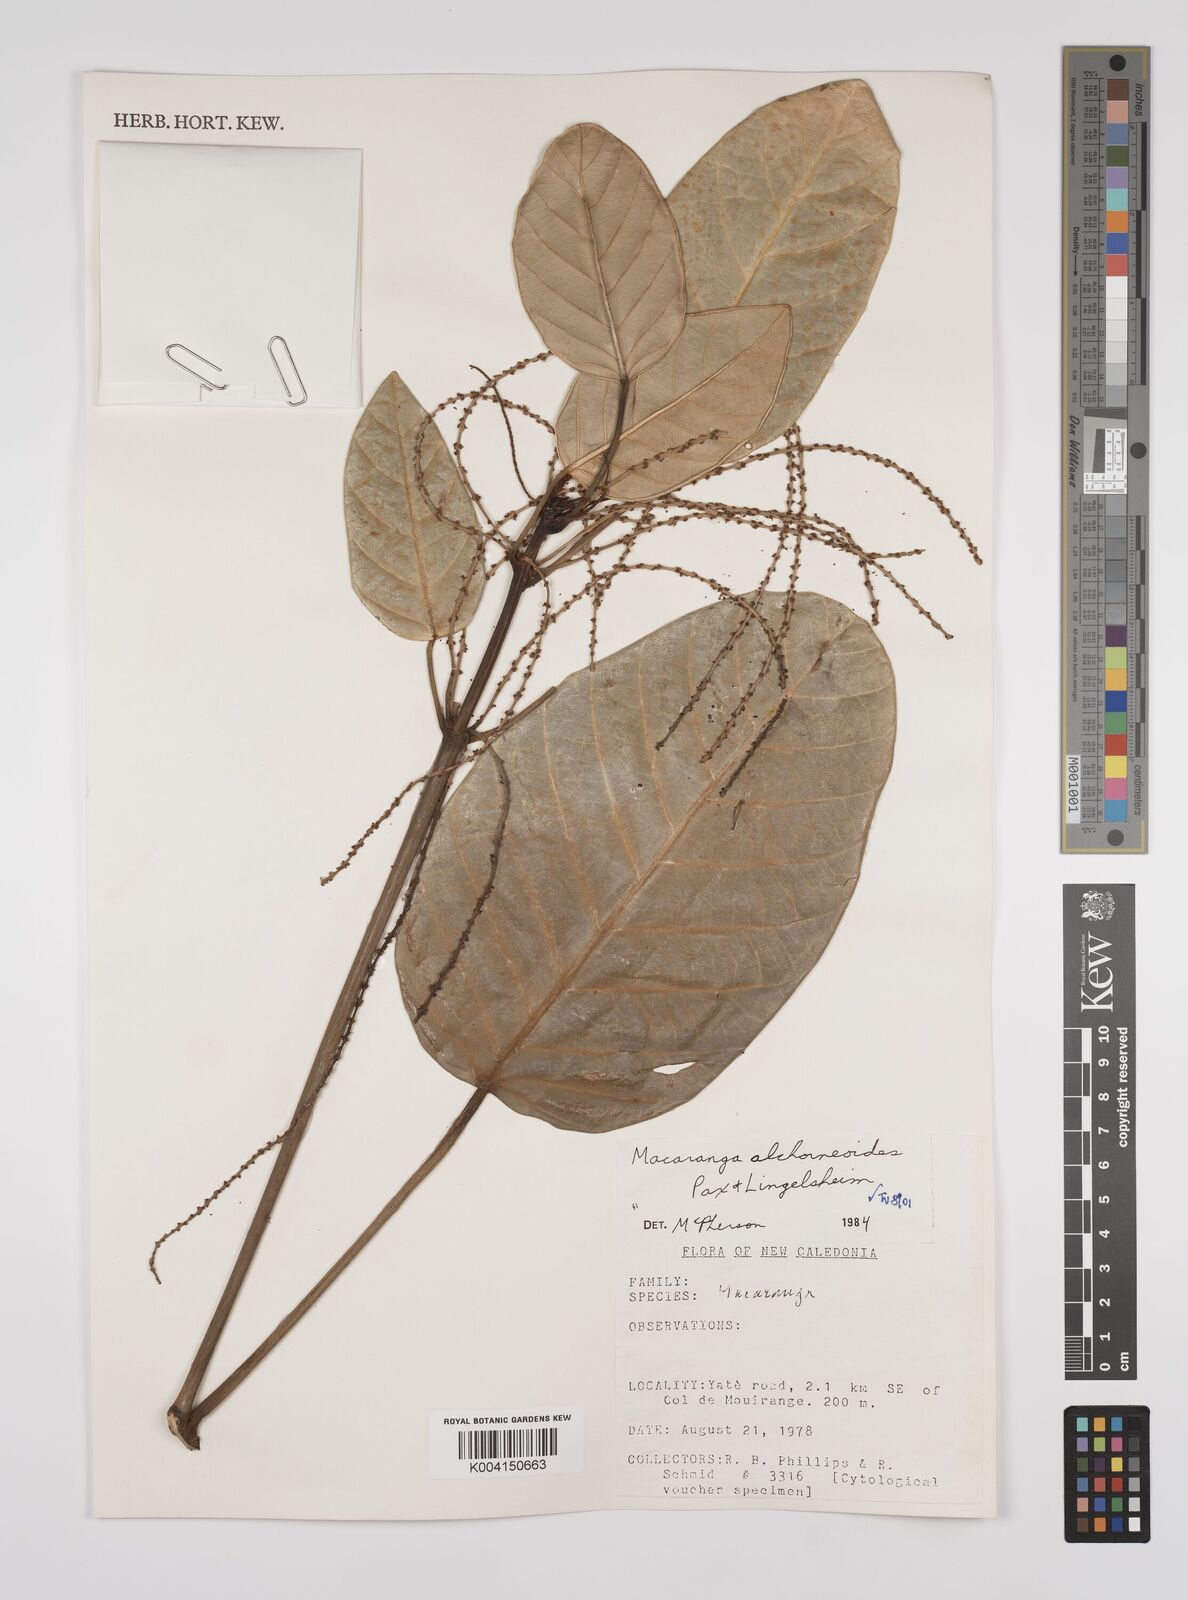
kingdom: Plantae
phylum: Tracheophyta
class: Magnoliopsida
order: Malpighiales
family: Euphorbiaceae
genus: Macaranga
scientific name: Macaranga alchorneoides
